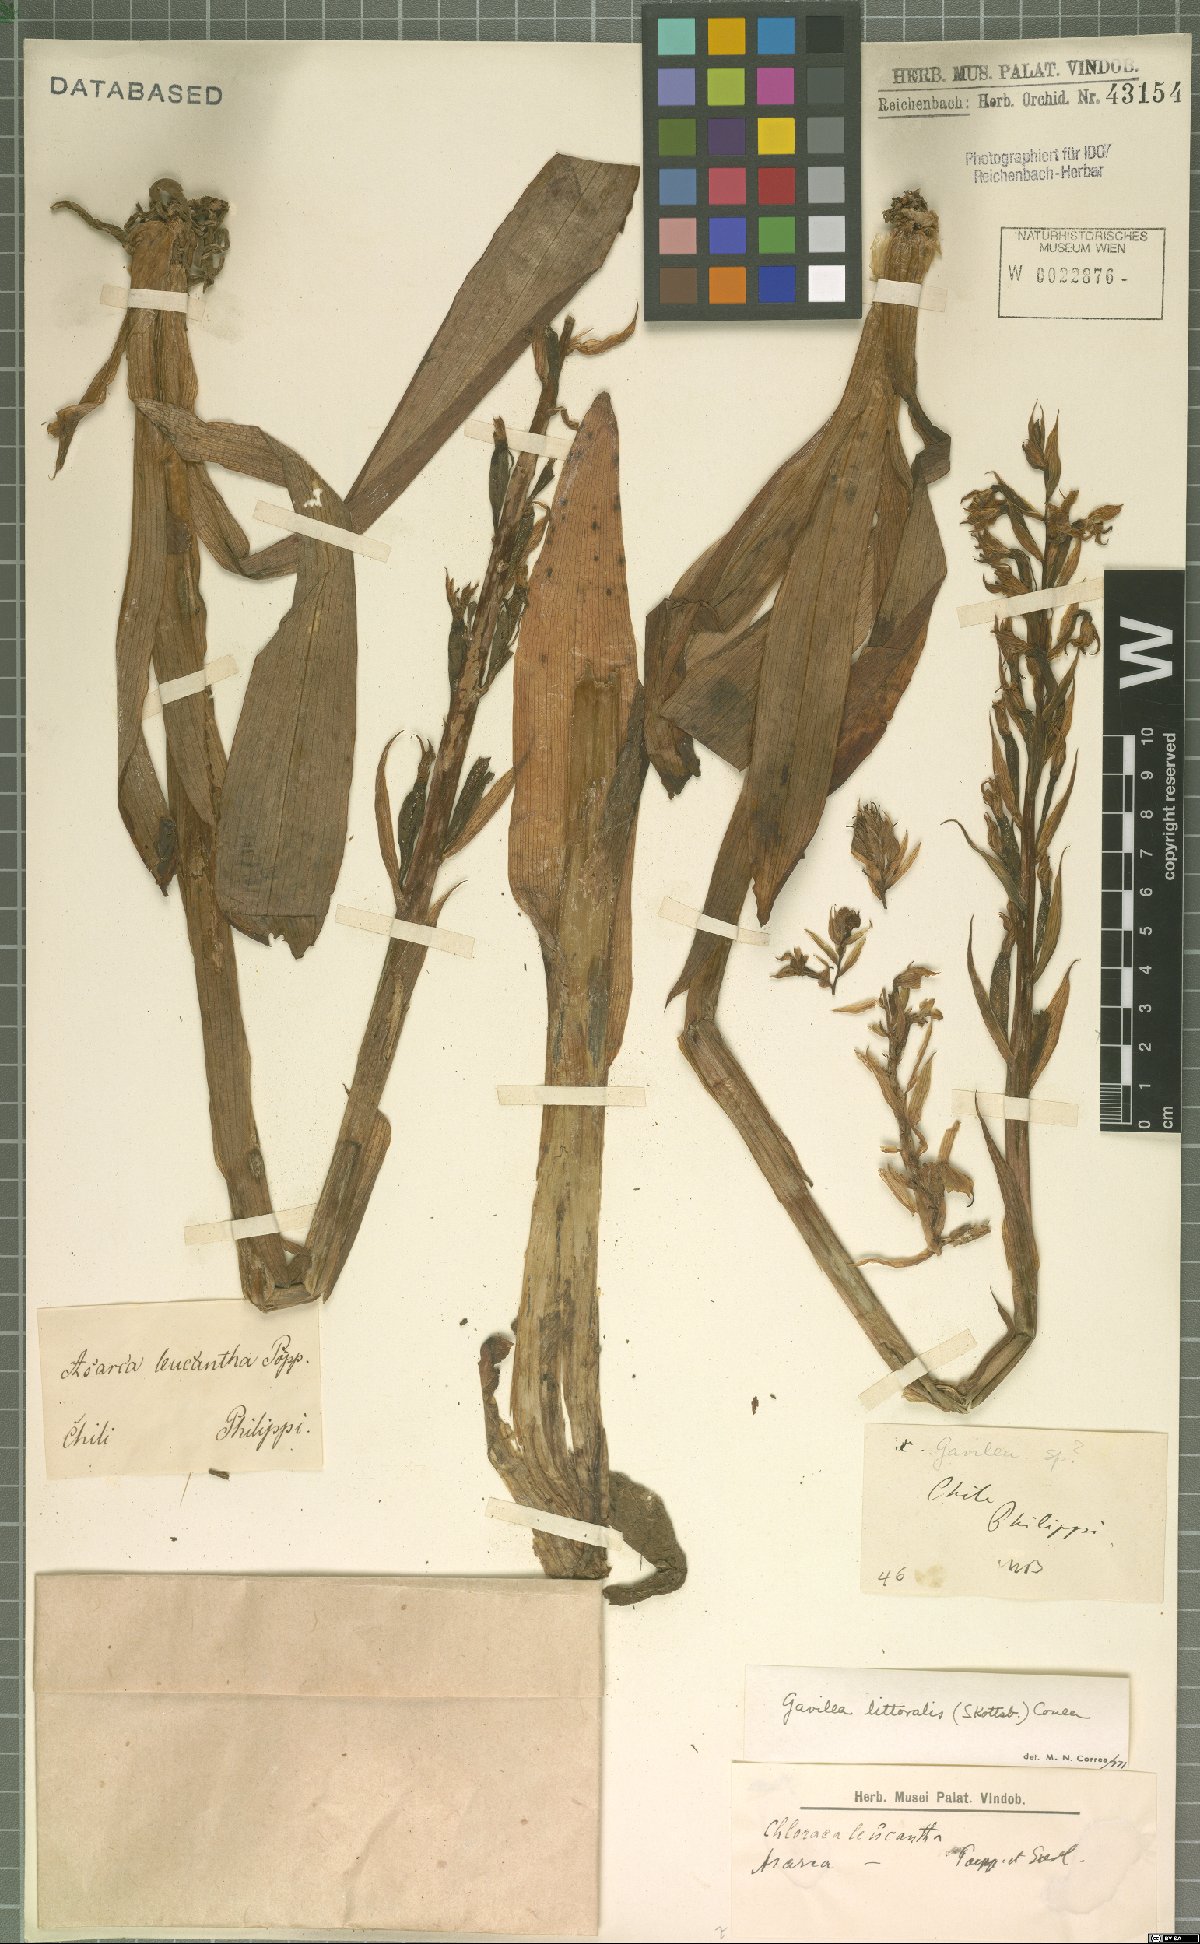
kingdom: Plantae
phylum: Tracheophyta
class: Liliopsida
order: Asparagales
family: Orchidaceae
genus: Gavilea
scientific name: Gavilea litoralis
